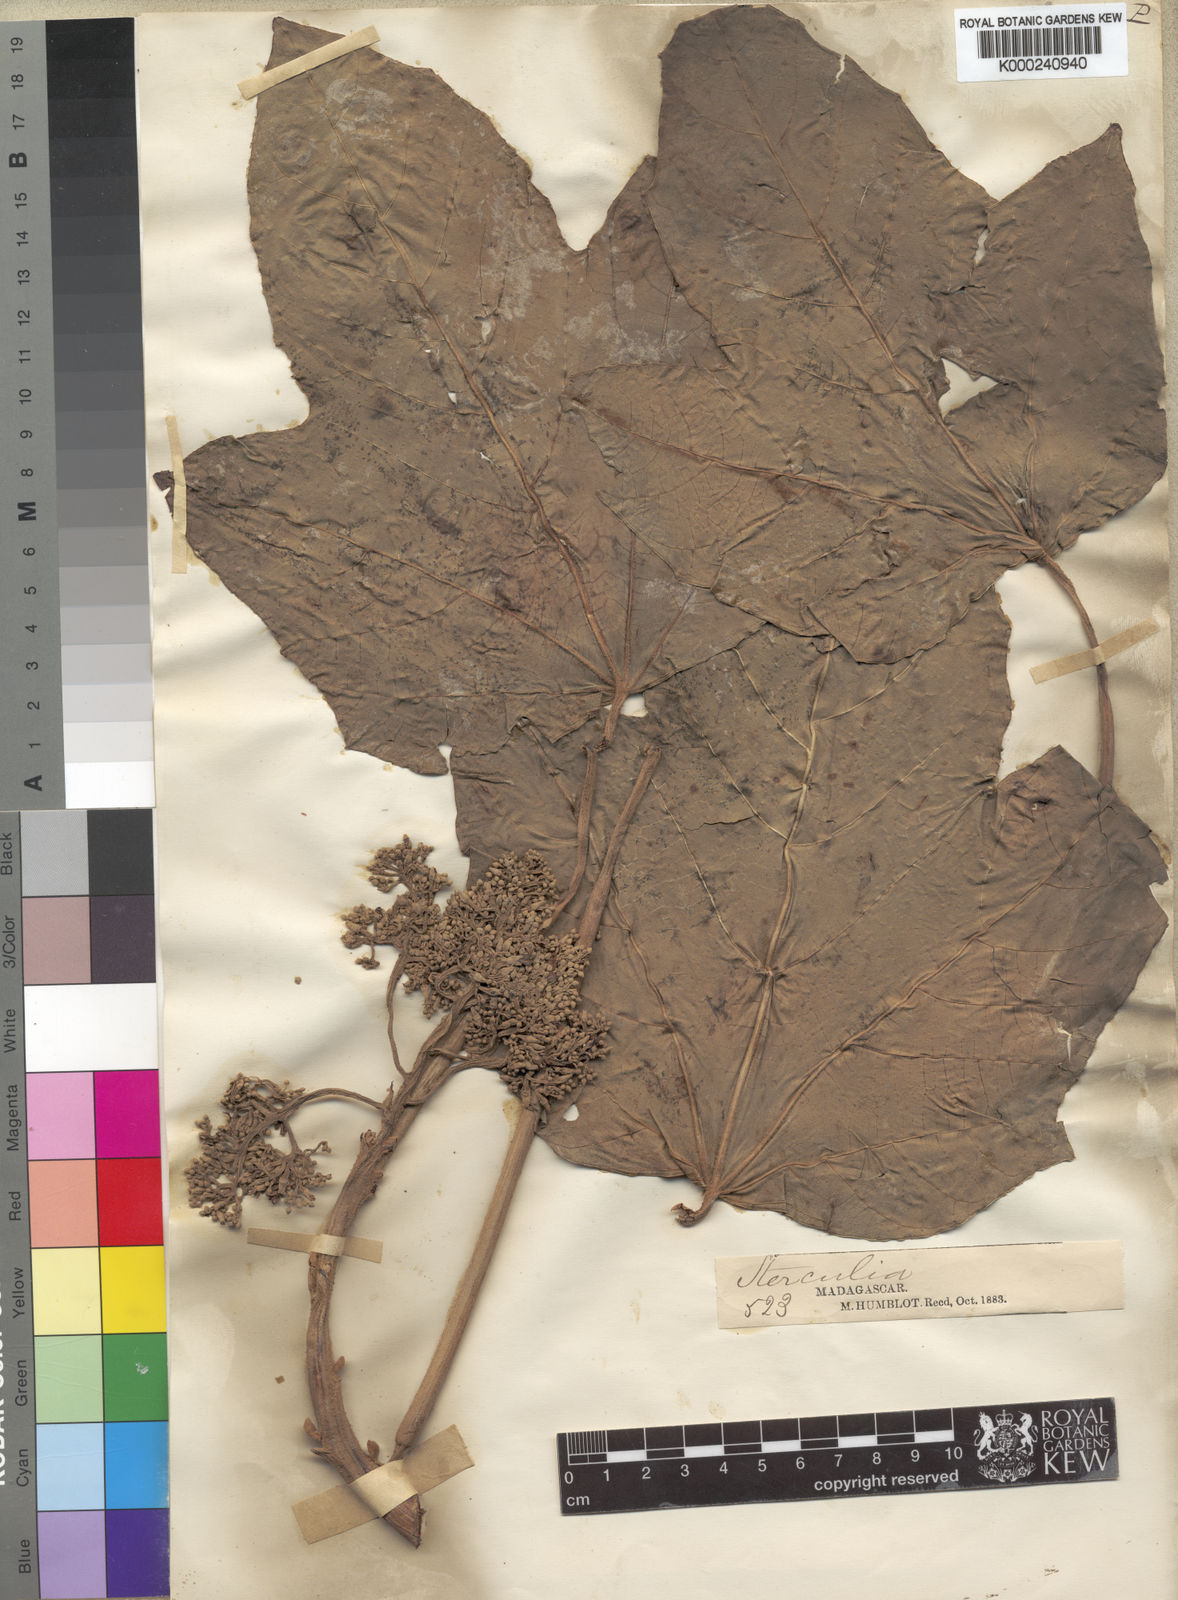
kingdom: Plantae
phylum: Tracheophyta
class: Magnoliopsida
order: Malvales
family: Malvaceae
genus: Sterculia
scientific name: Sterculia tavia
